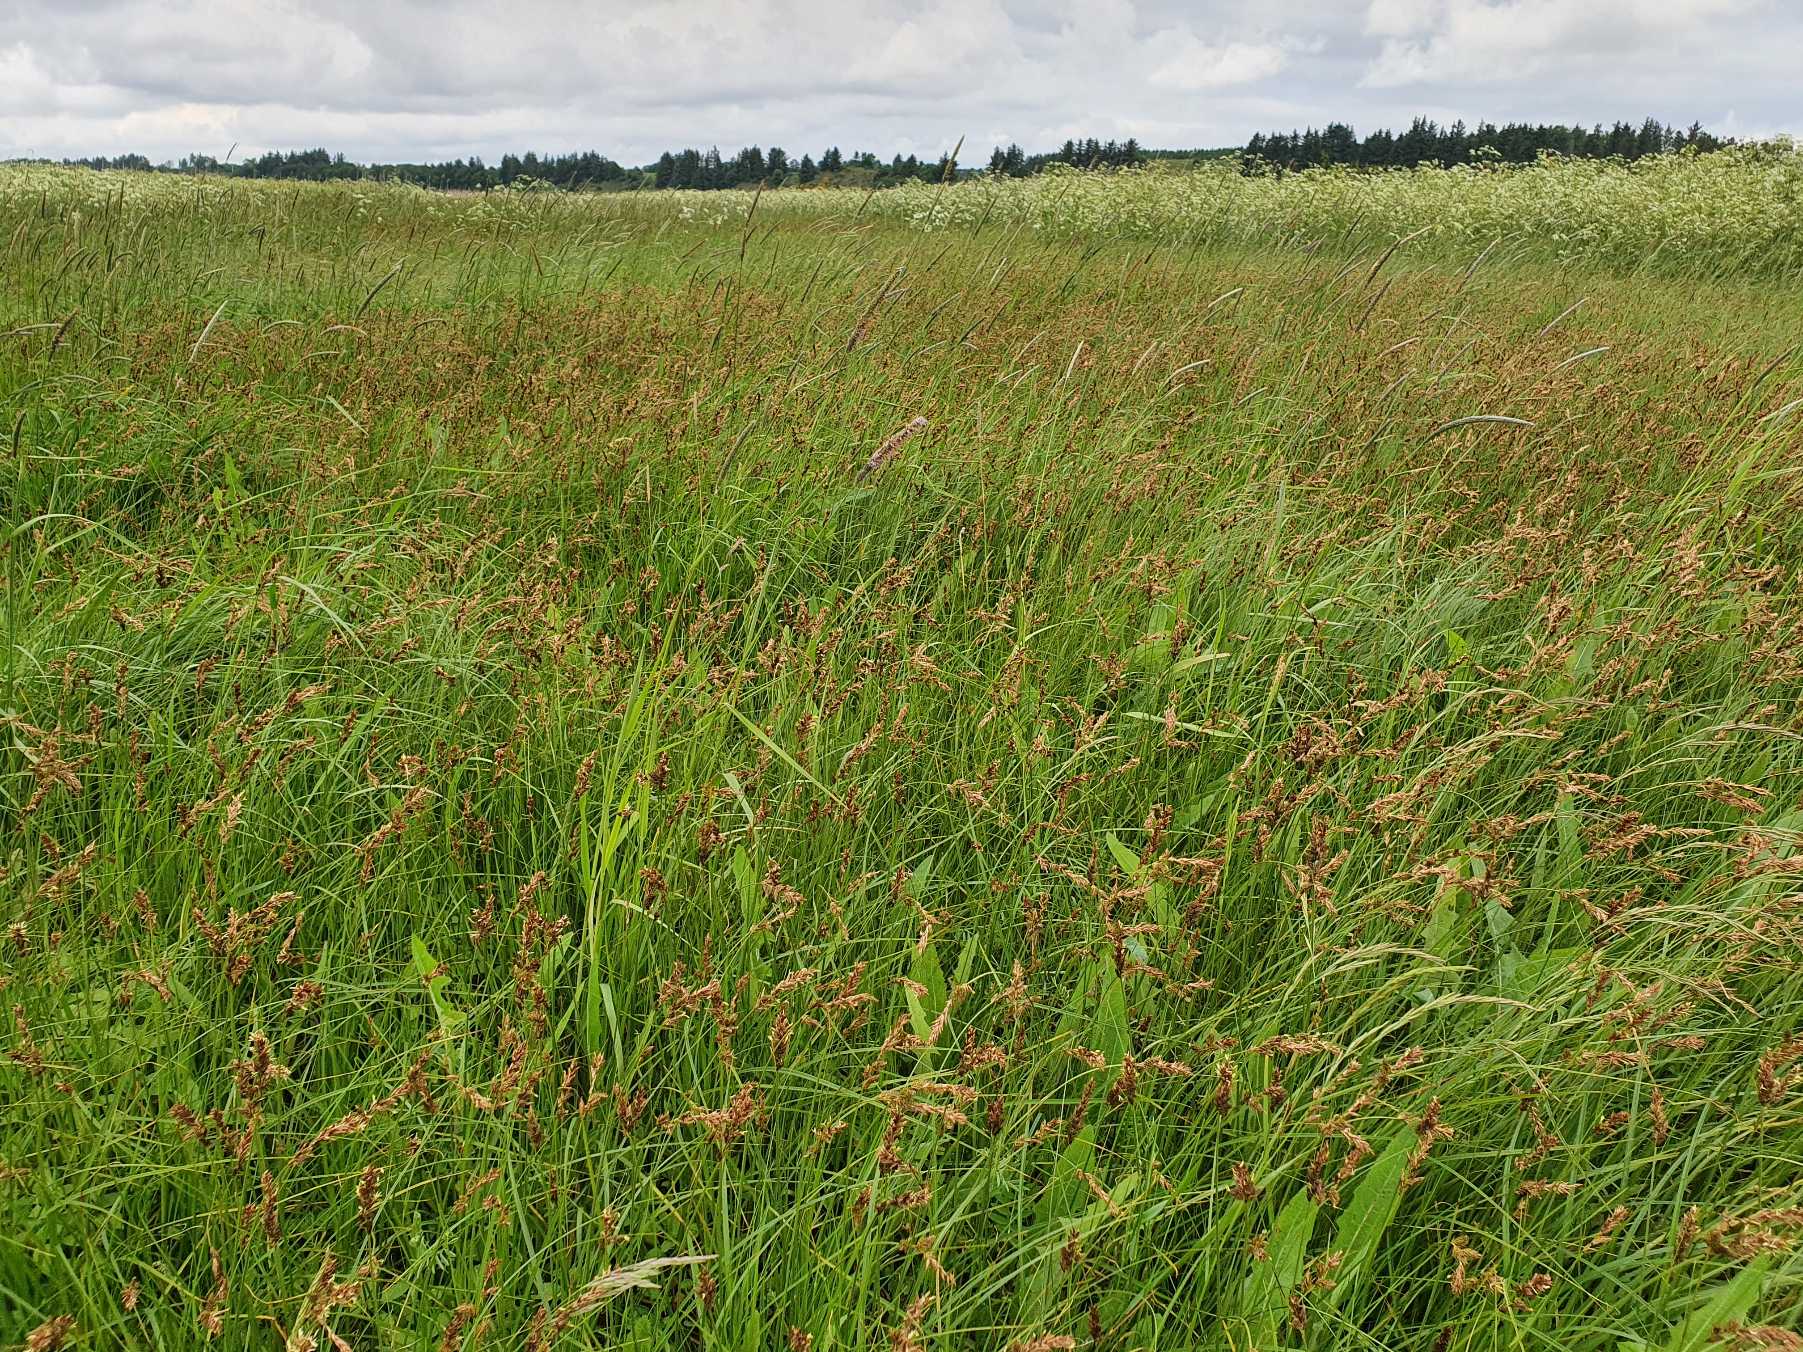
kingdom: Plantae
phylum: Tracheophyta
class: Liliopsida
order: Poales
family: Cyperaceae
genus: Carex
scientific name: Carex disticha
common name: Toradet star
